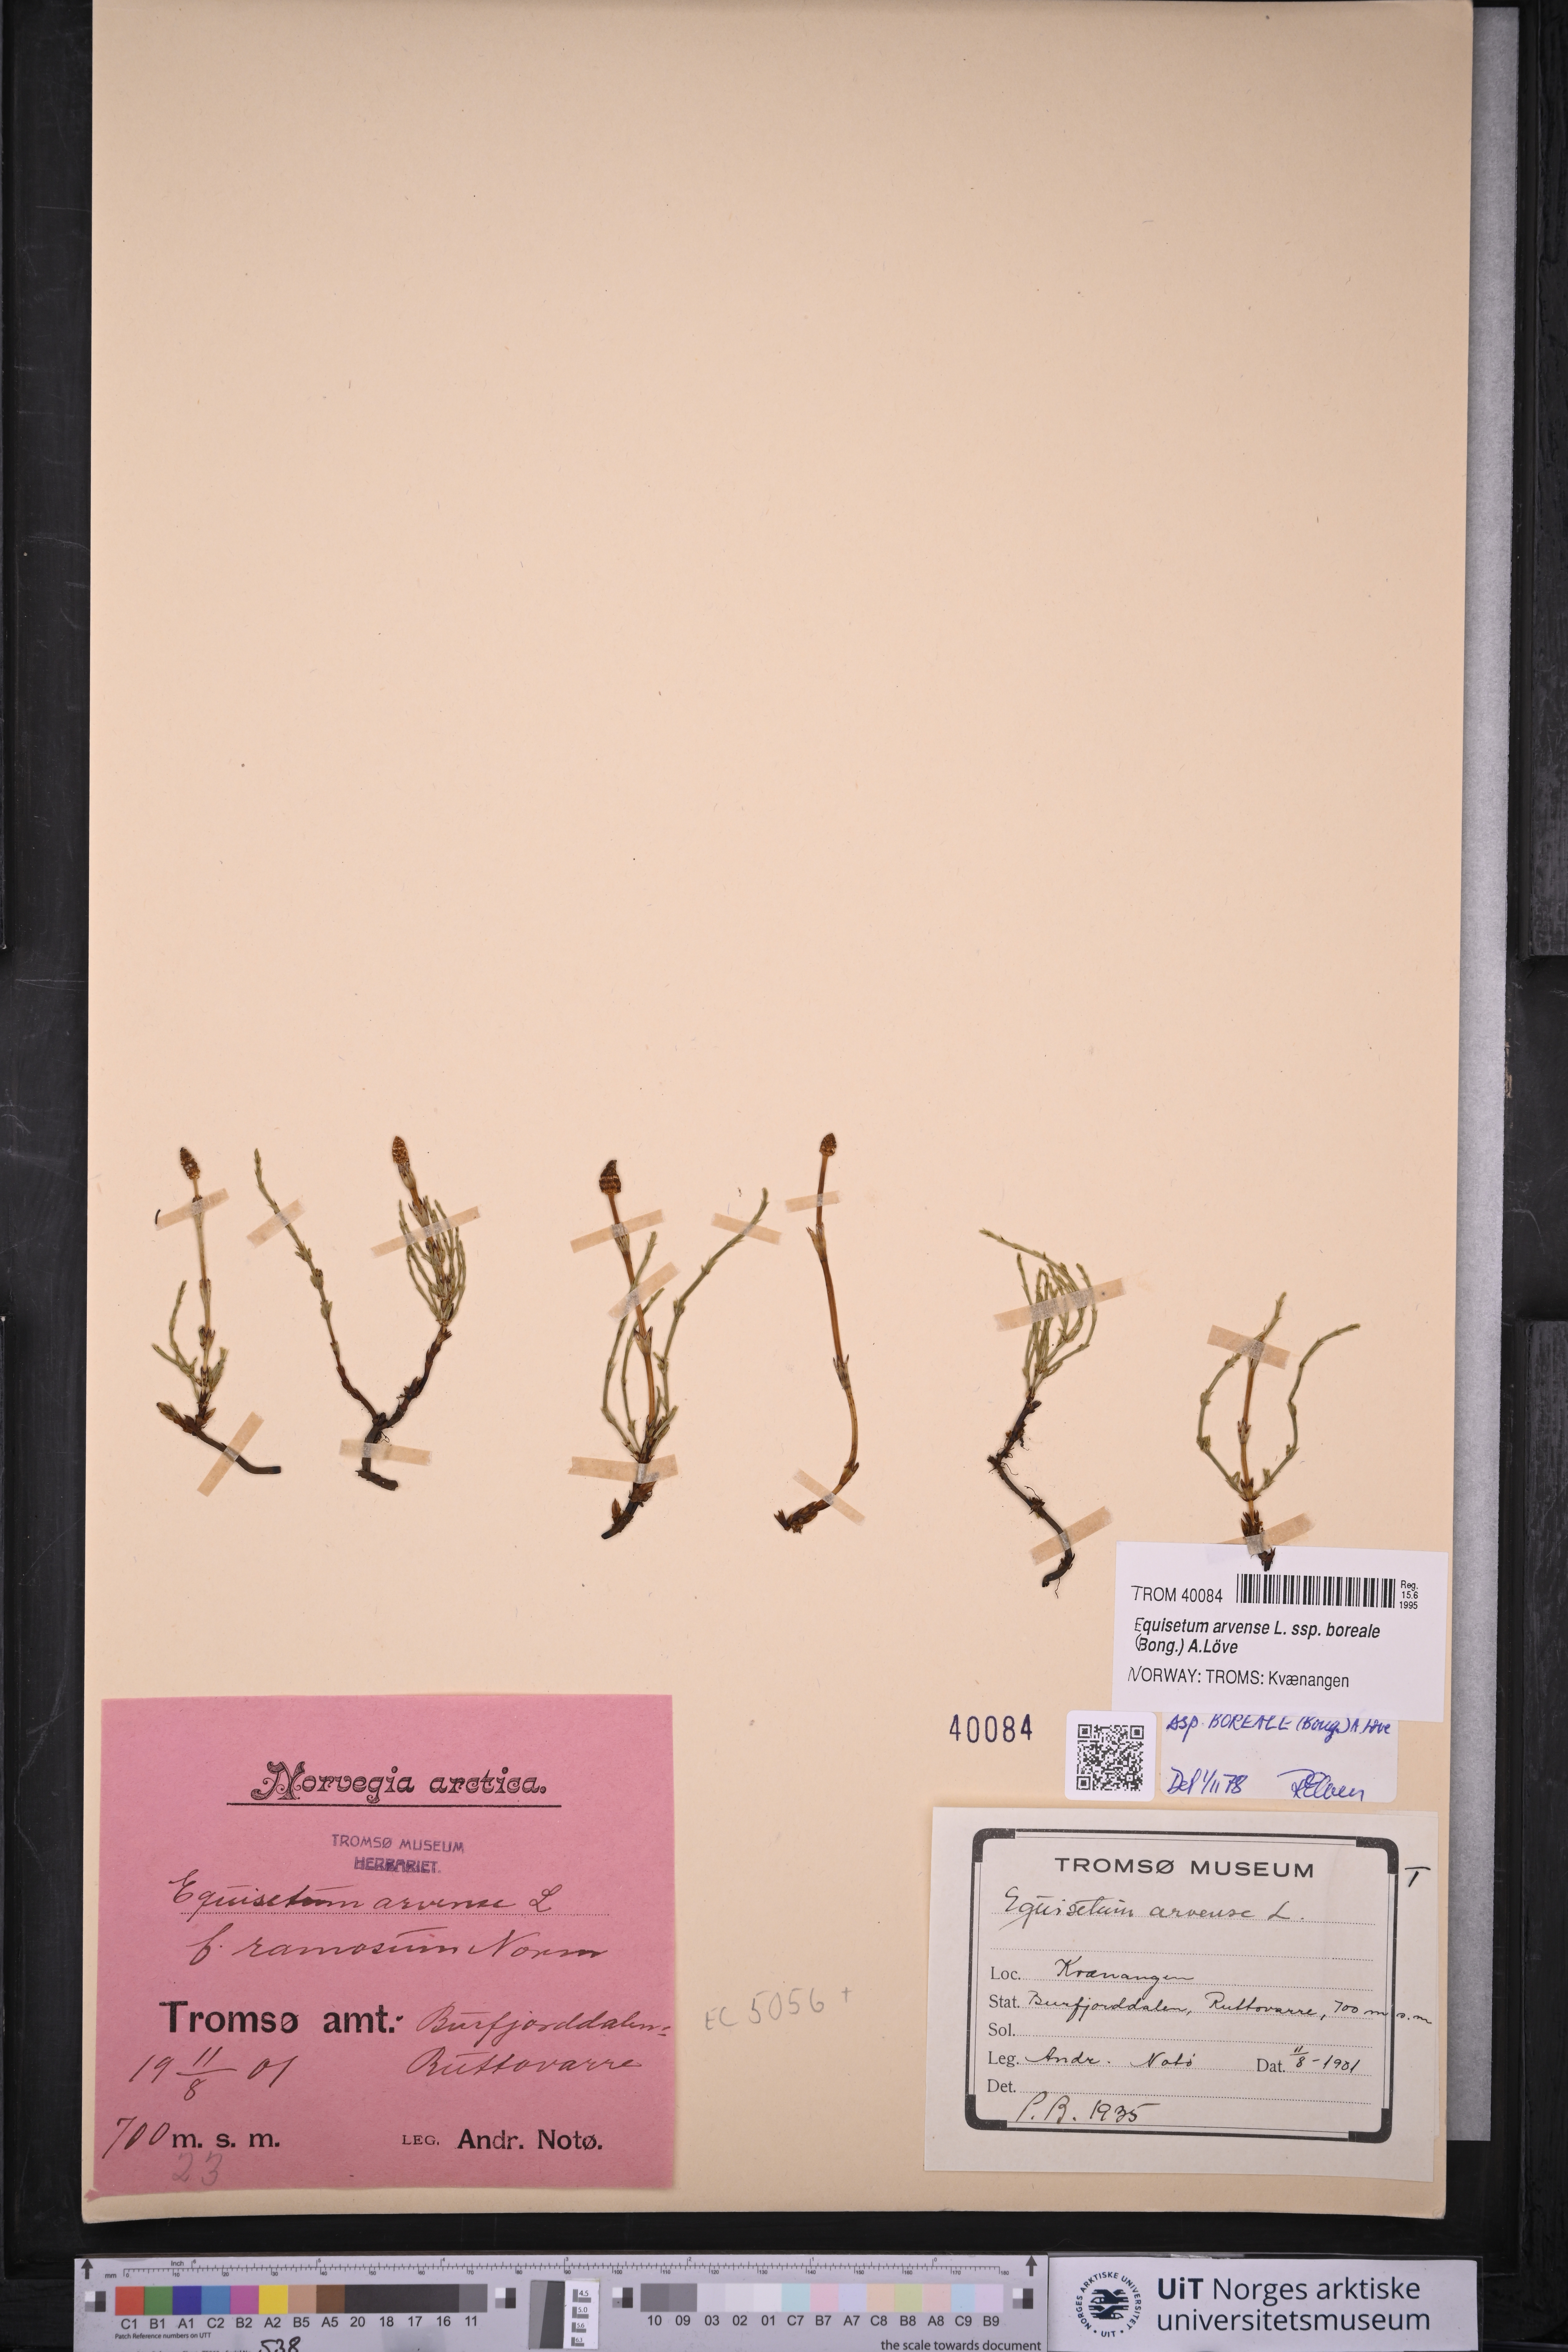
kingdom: Plantae
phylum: Tracheophyta
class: Polypodiopsida
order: Equisetales
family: Equisetaceae
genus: Equisetum
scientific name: Equisetum arvense
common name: Field horsetail
